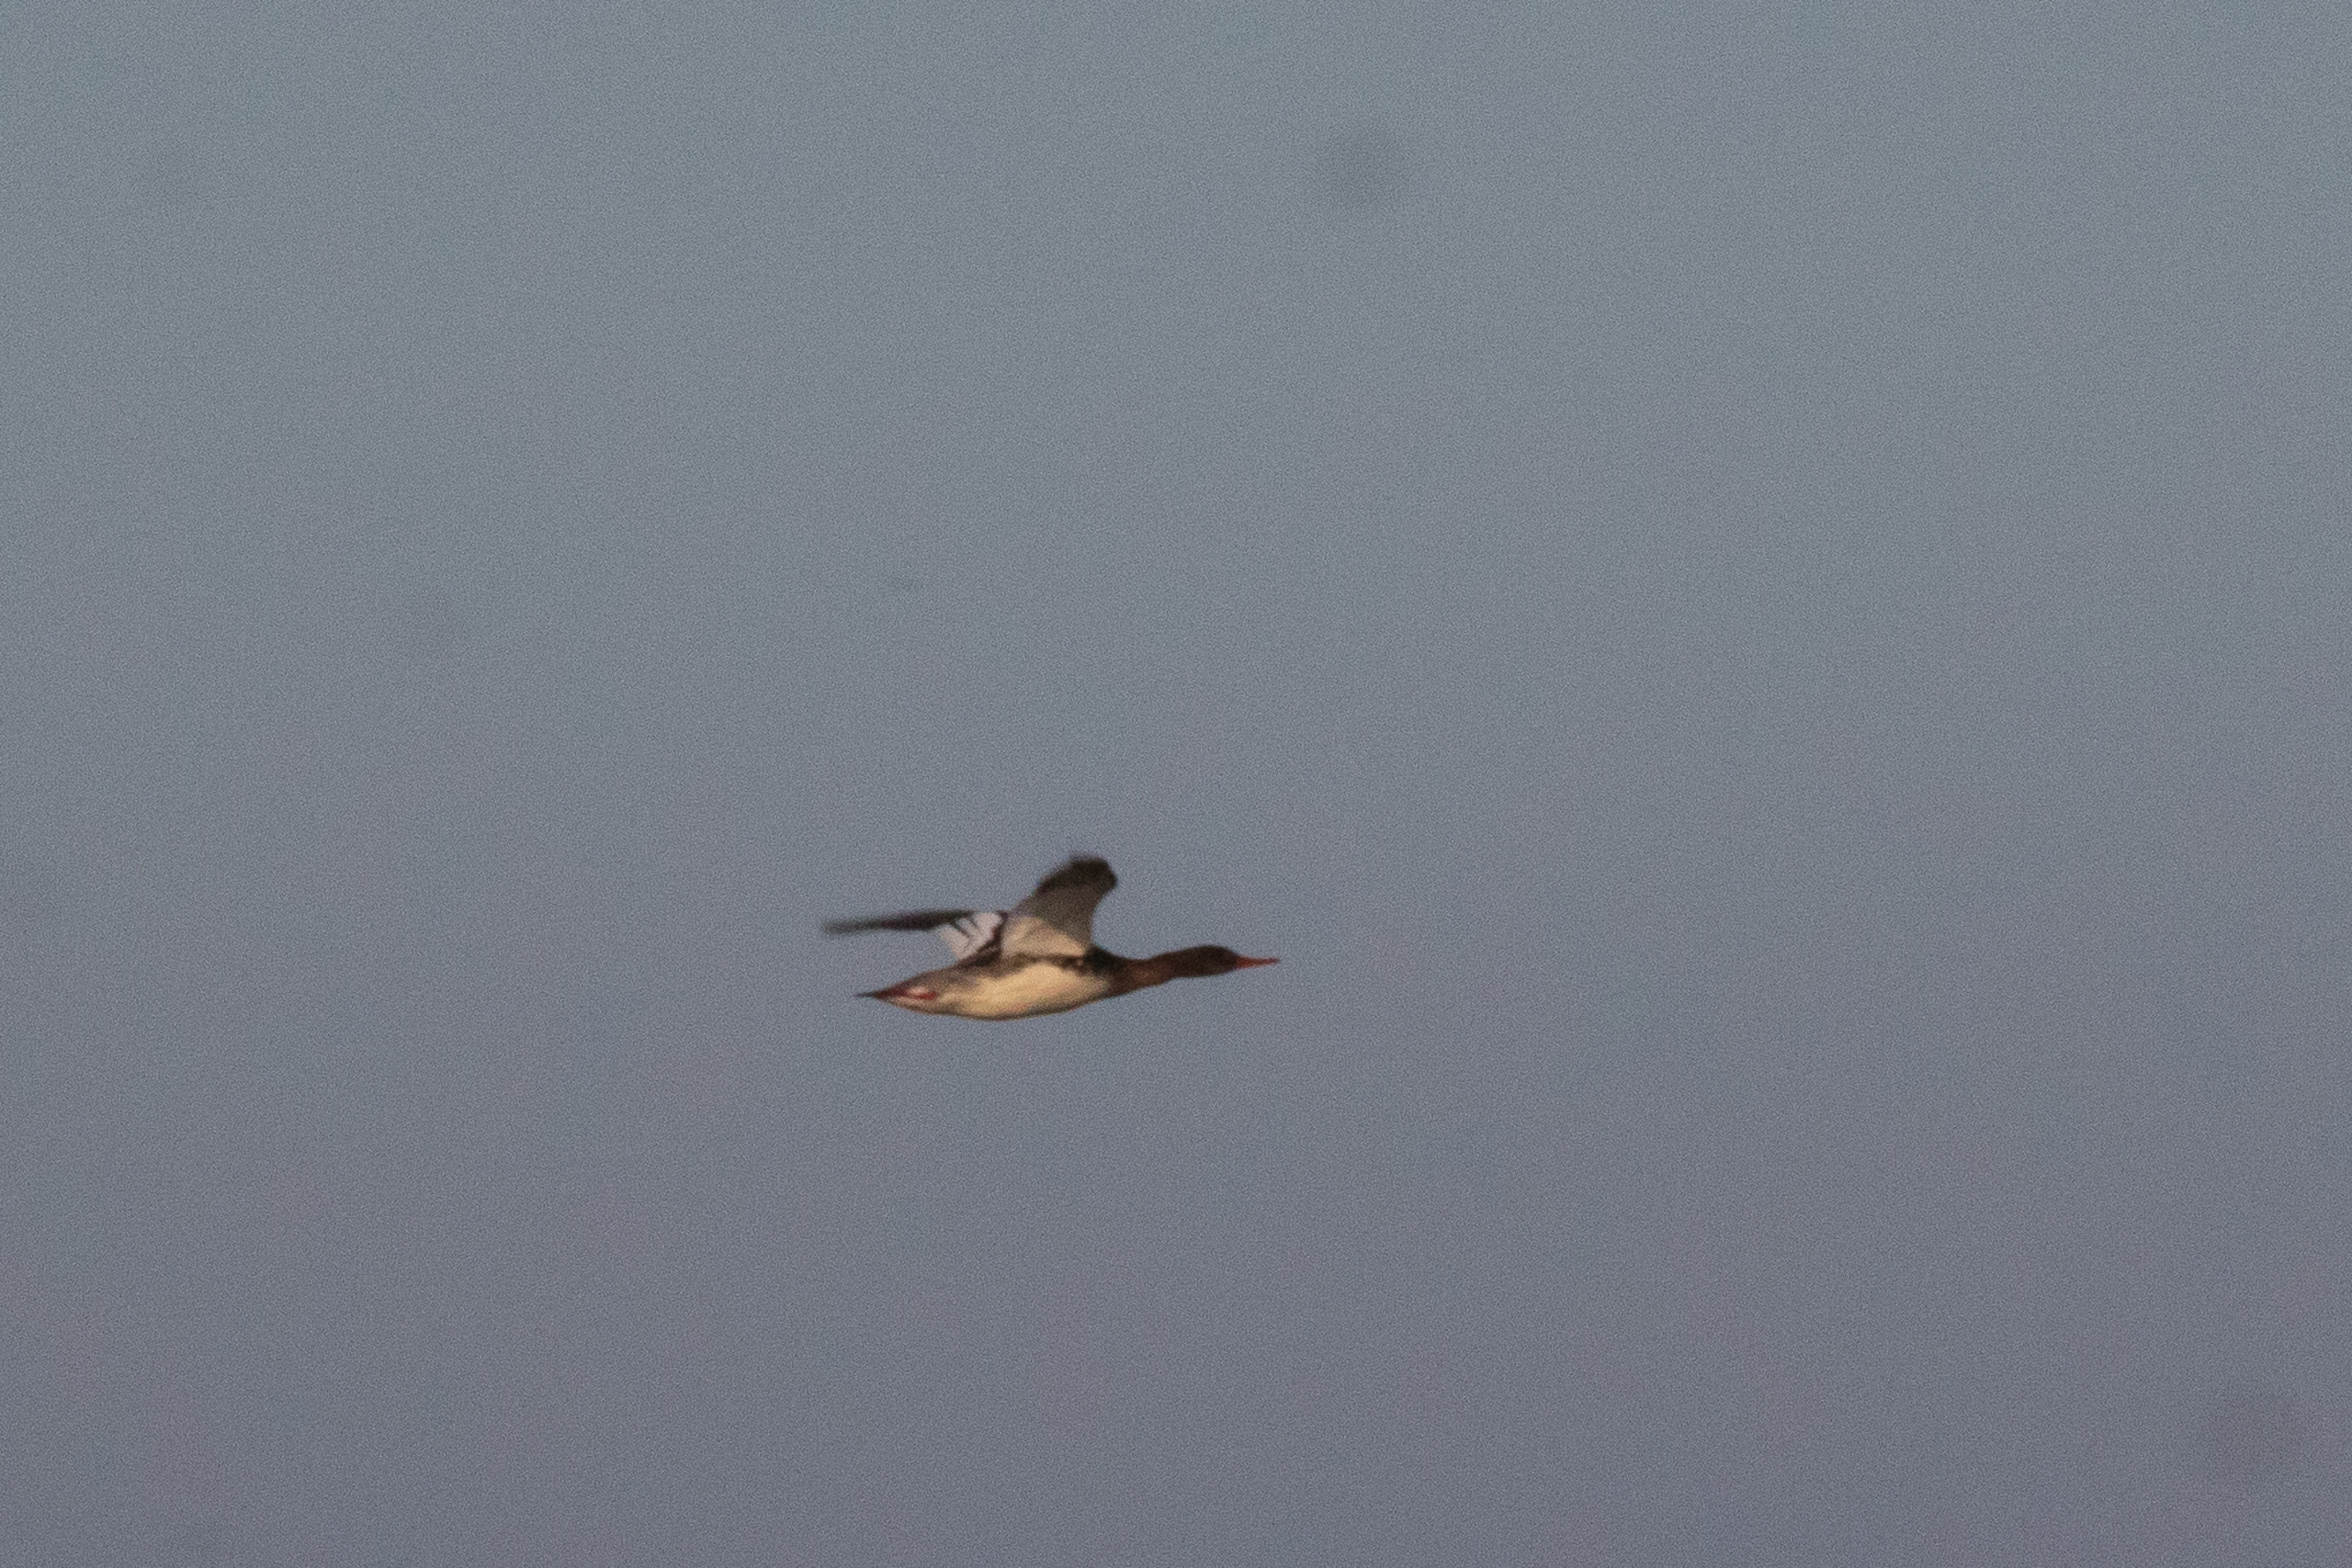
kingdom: Animalia
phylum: Chordata
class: Aves
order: Anseriformes
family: Anatidae
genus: Mergus
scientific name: Mergus serrator
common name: Toppet skallesluger
